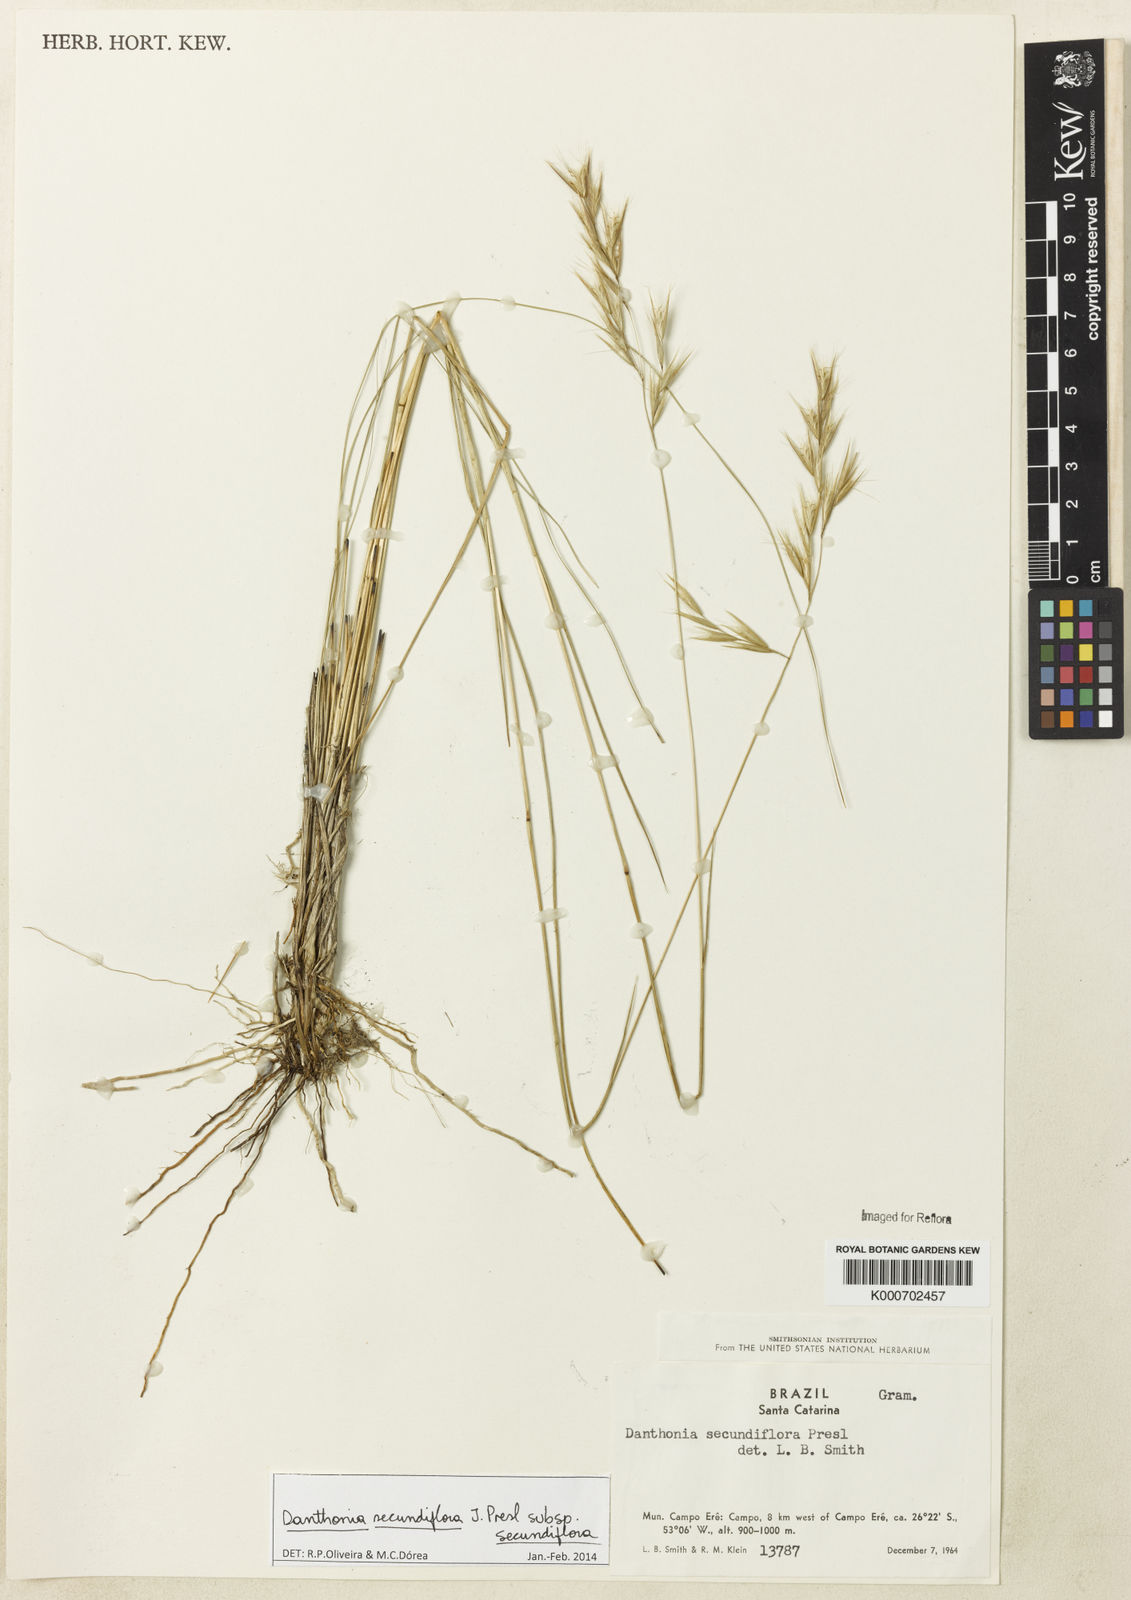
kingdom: Plantae
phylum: Tracheophyta
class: Liliopsida
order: Poales
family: Poaceae
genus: Danthonia
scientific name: Danthonia secundiflora
